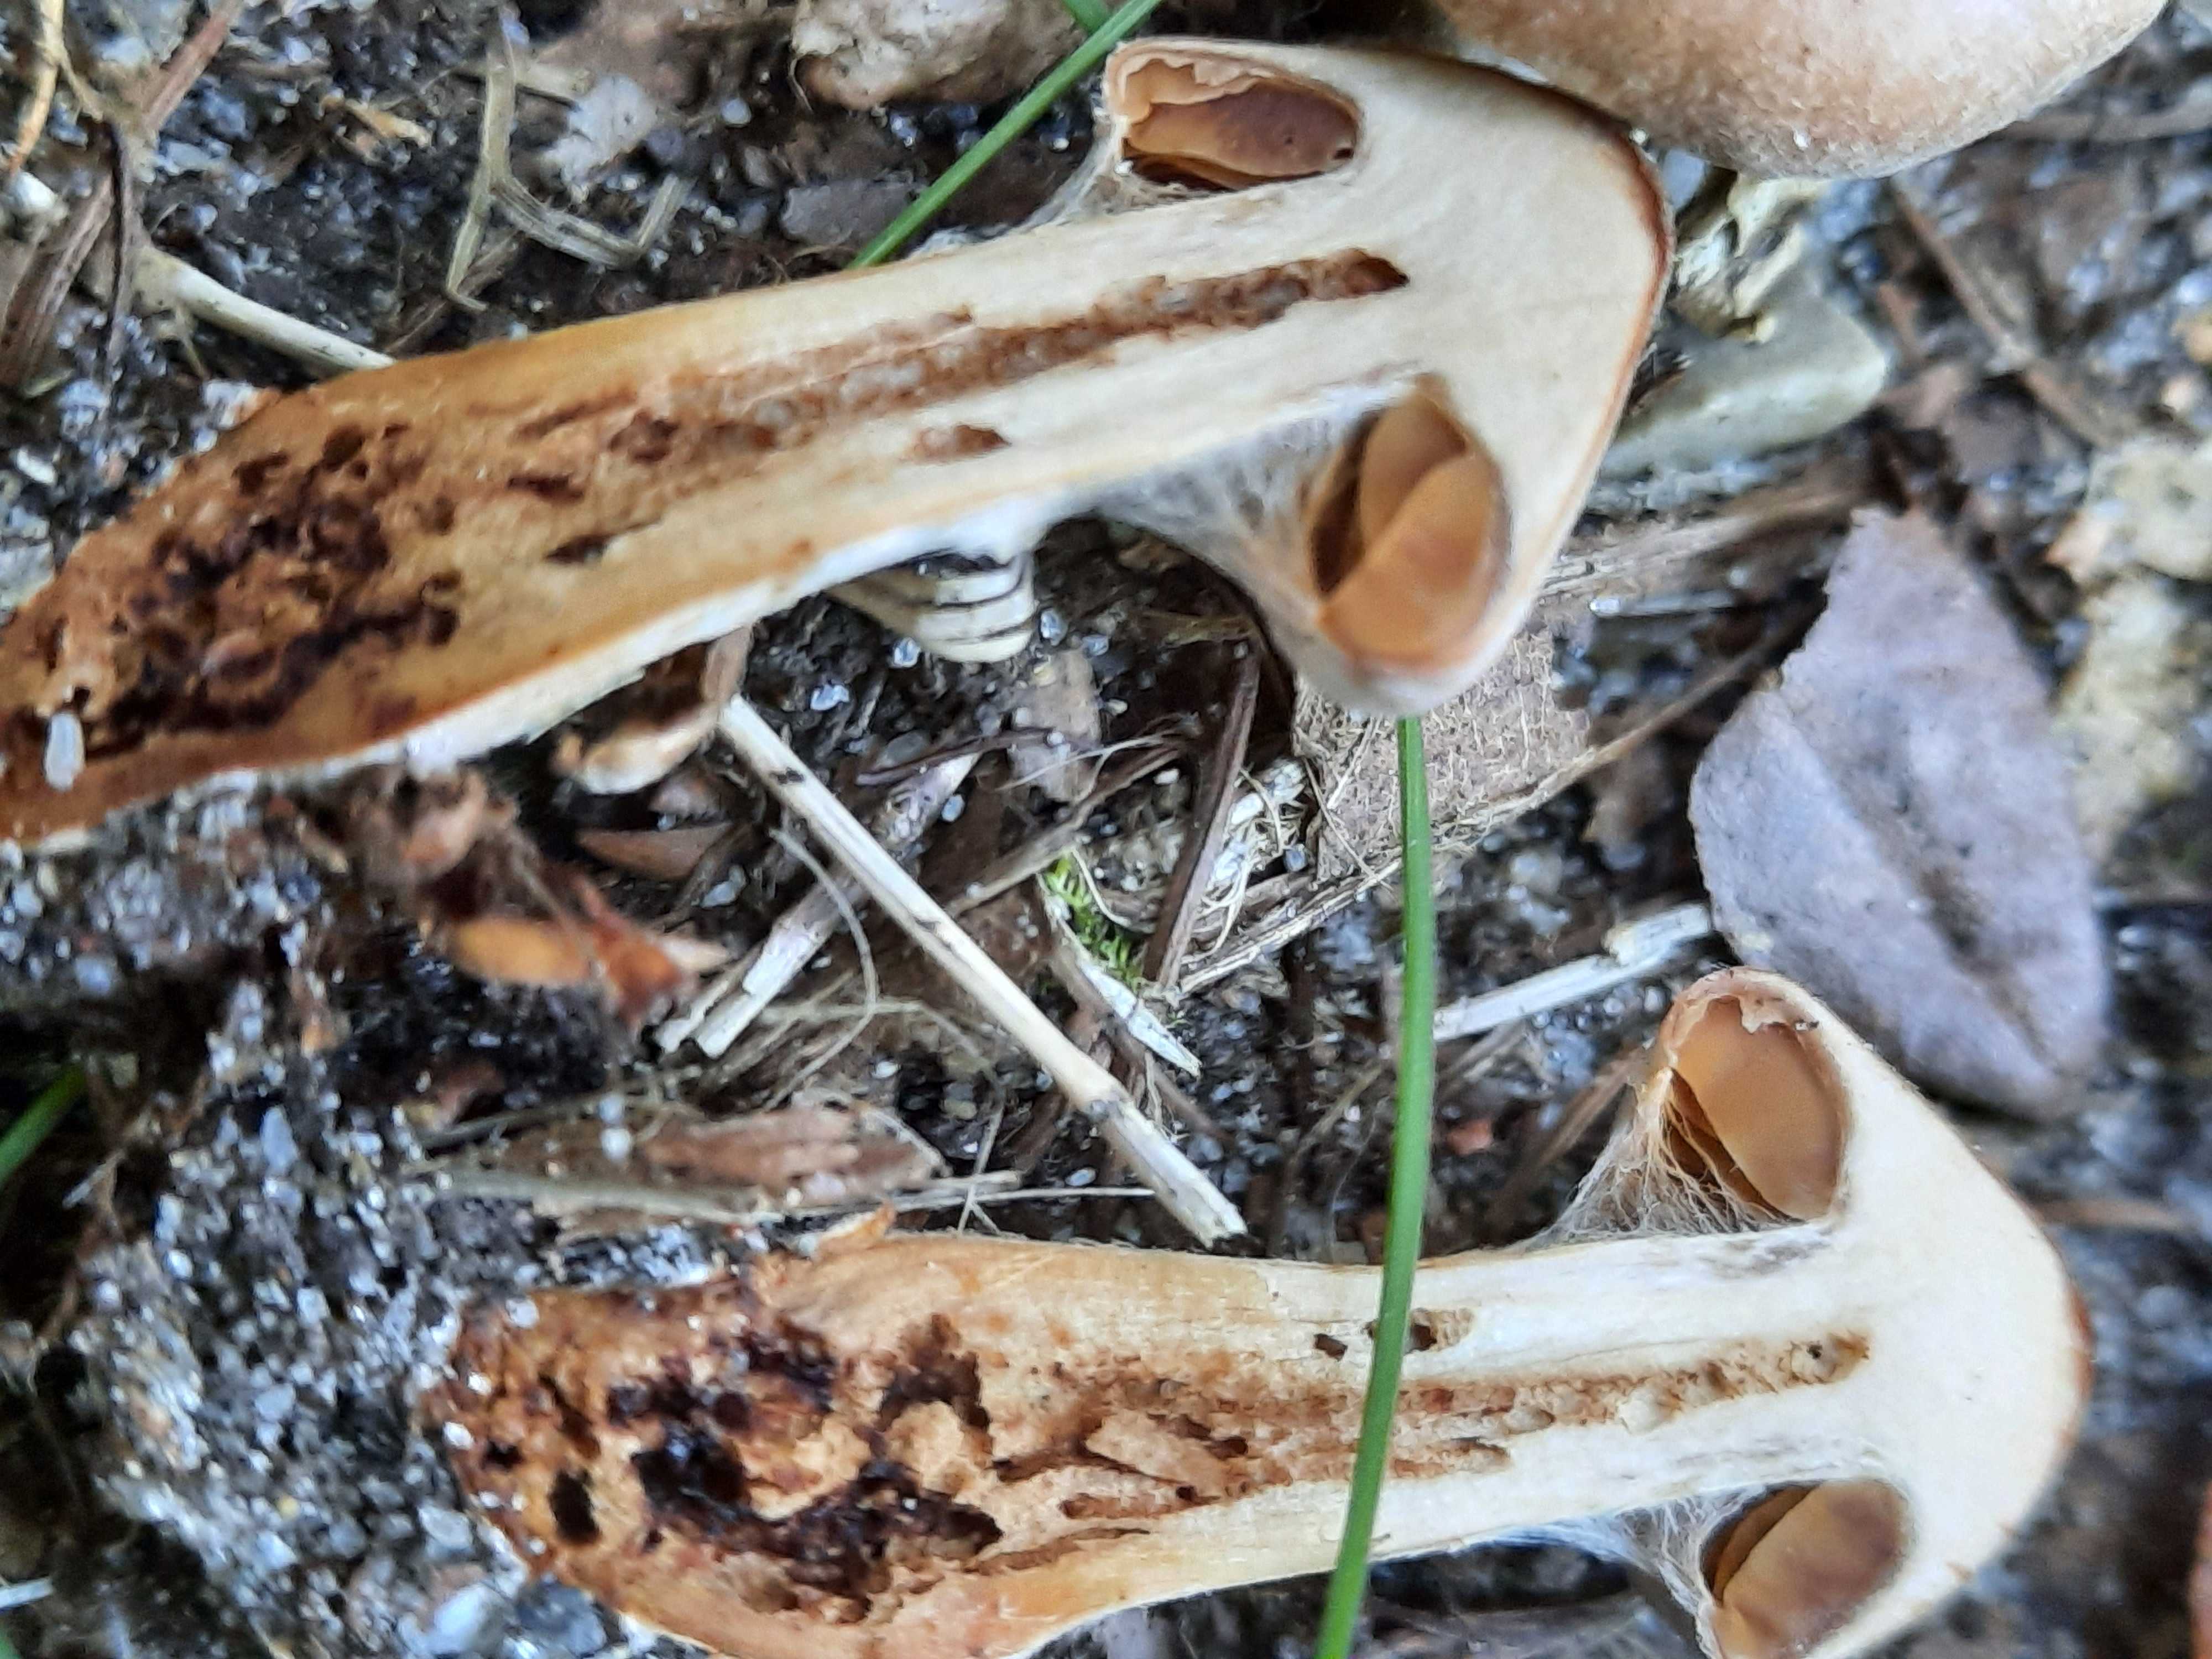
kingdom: Fungi
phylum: Basidiomycota
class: Agaricomycetes
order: Agaricales
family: Cortinariaceae
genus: Cortinarius
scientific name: Cortinarius epipurrus
